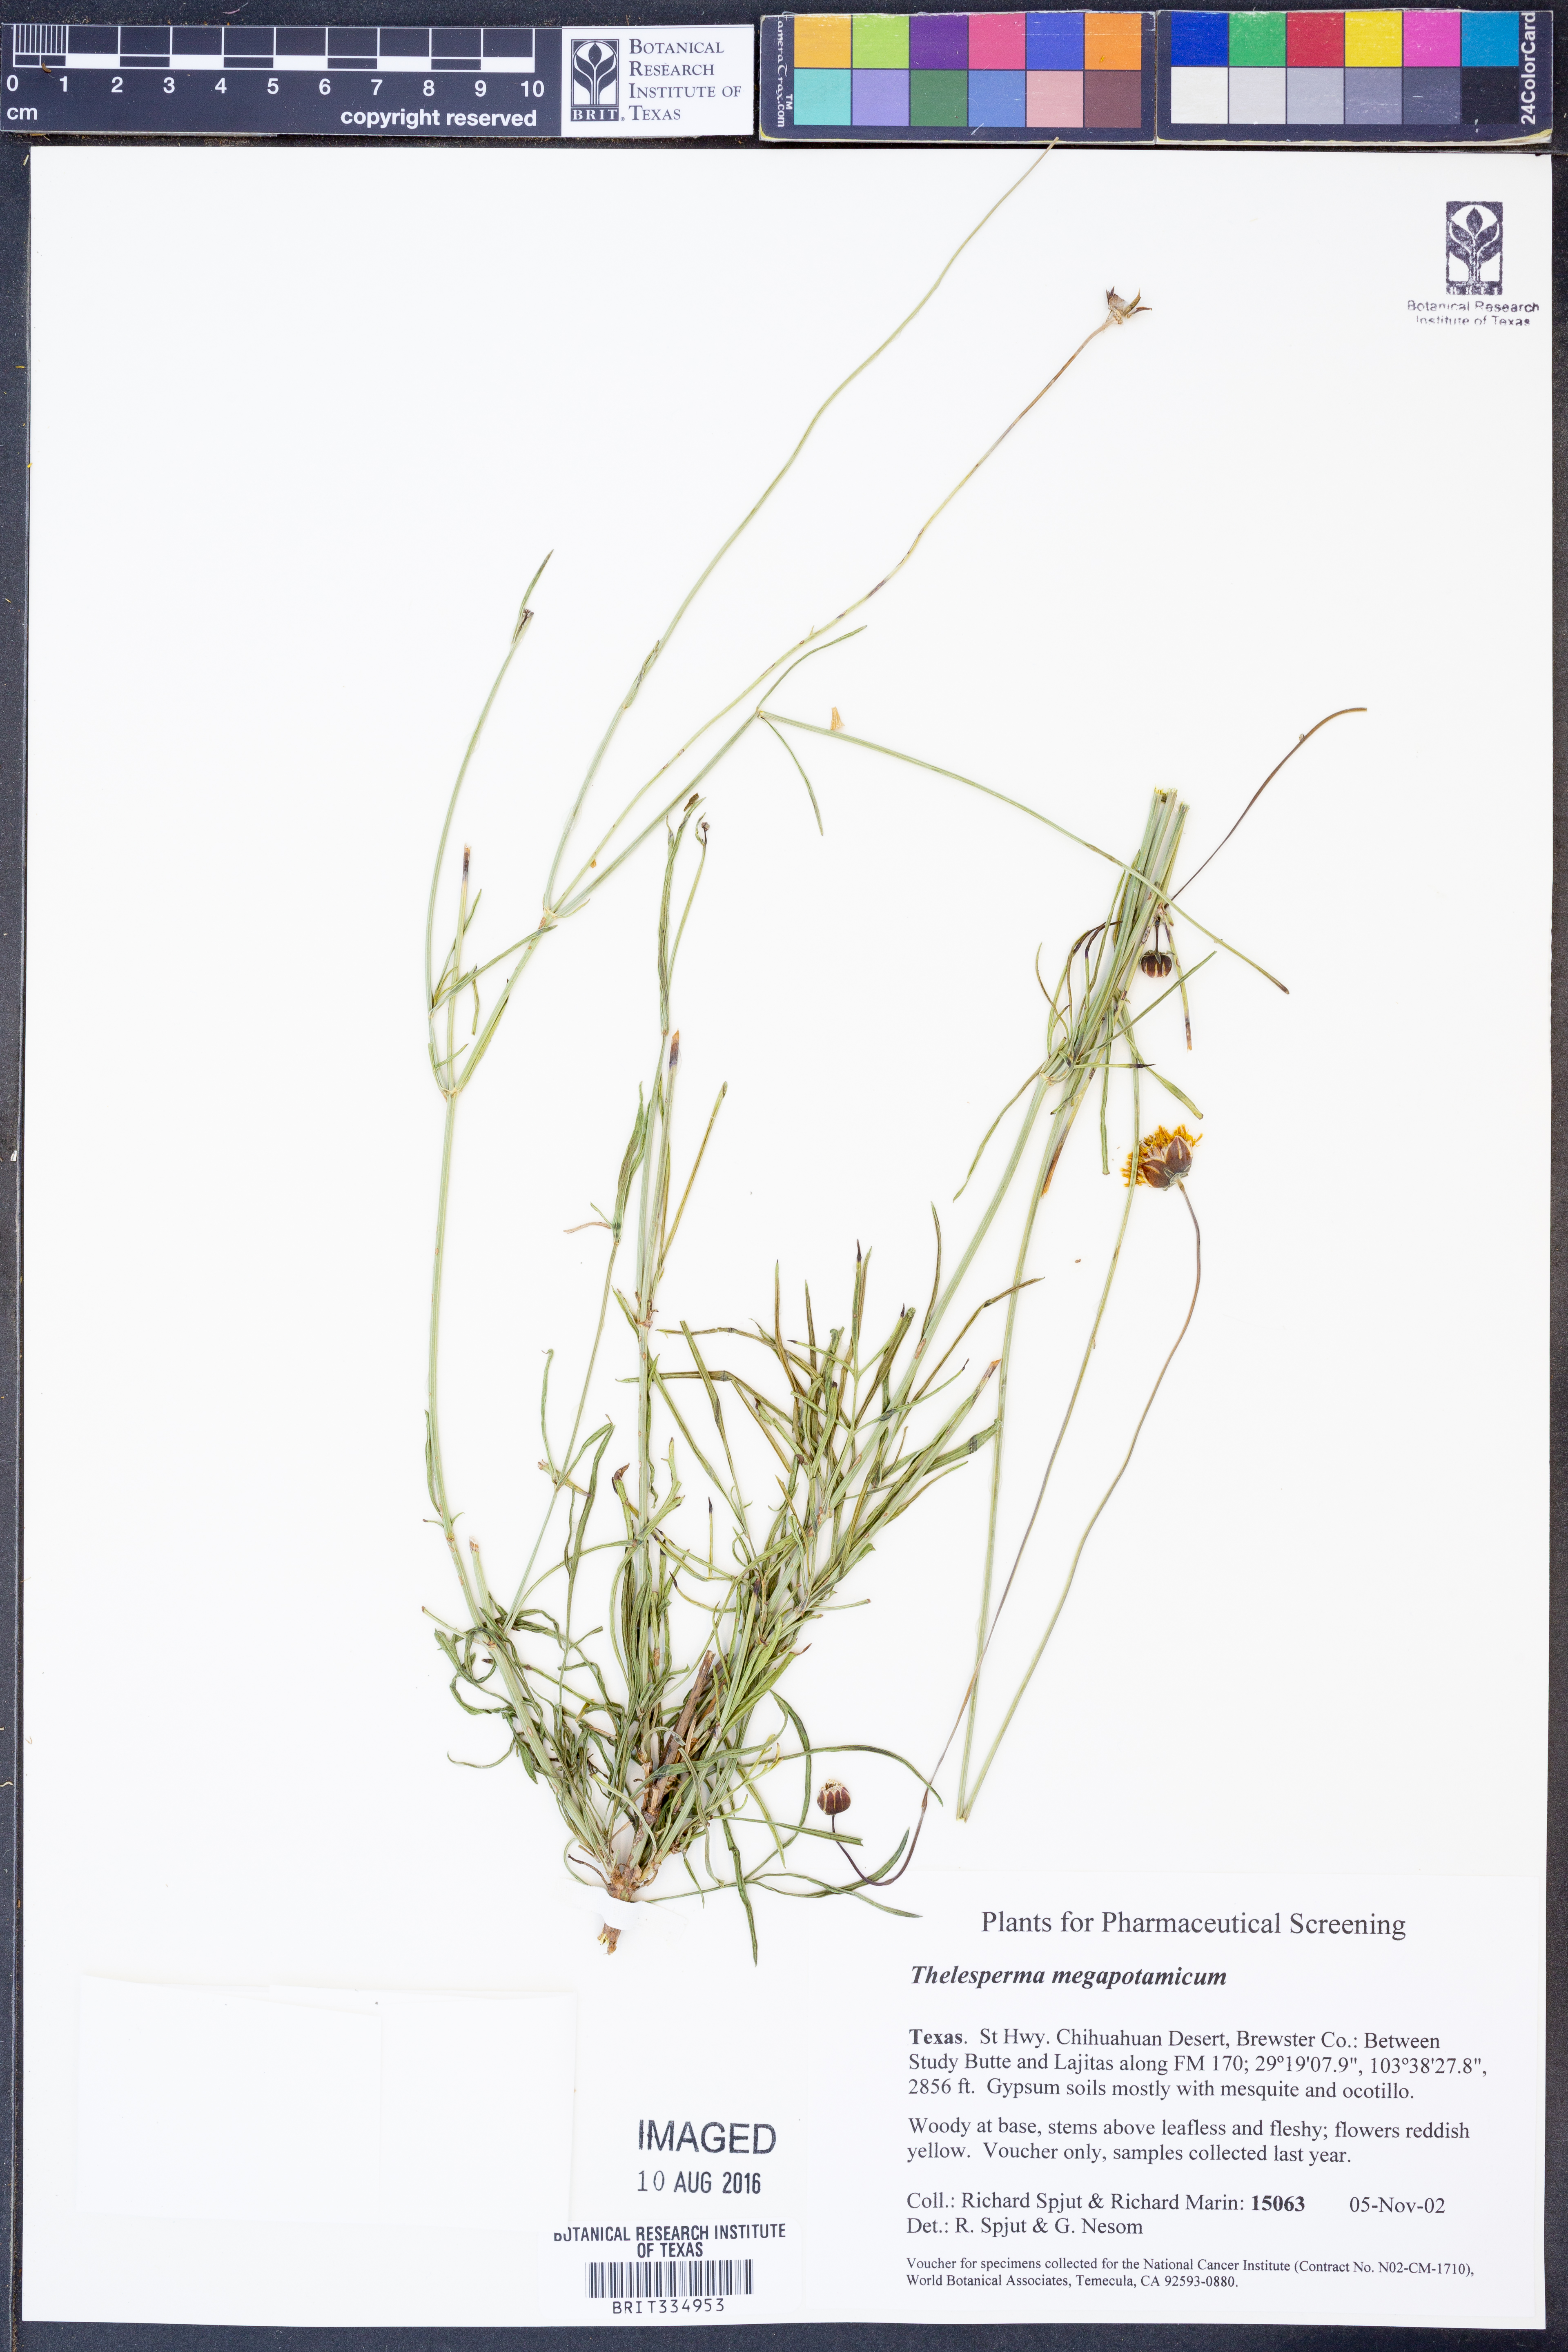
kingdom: Plantae
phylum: Tracheophyta
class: Magnoliopsida
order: Asterales
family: Asteraceae
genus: Thelesperma
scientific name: Thelesperma megapotamicum
